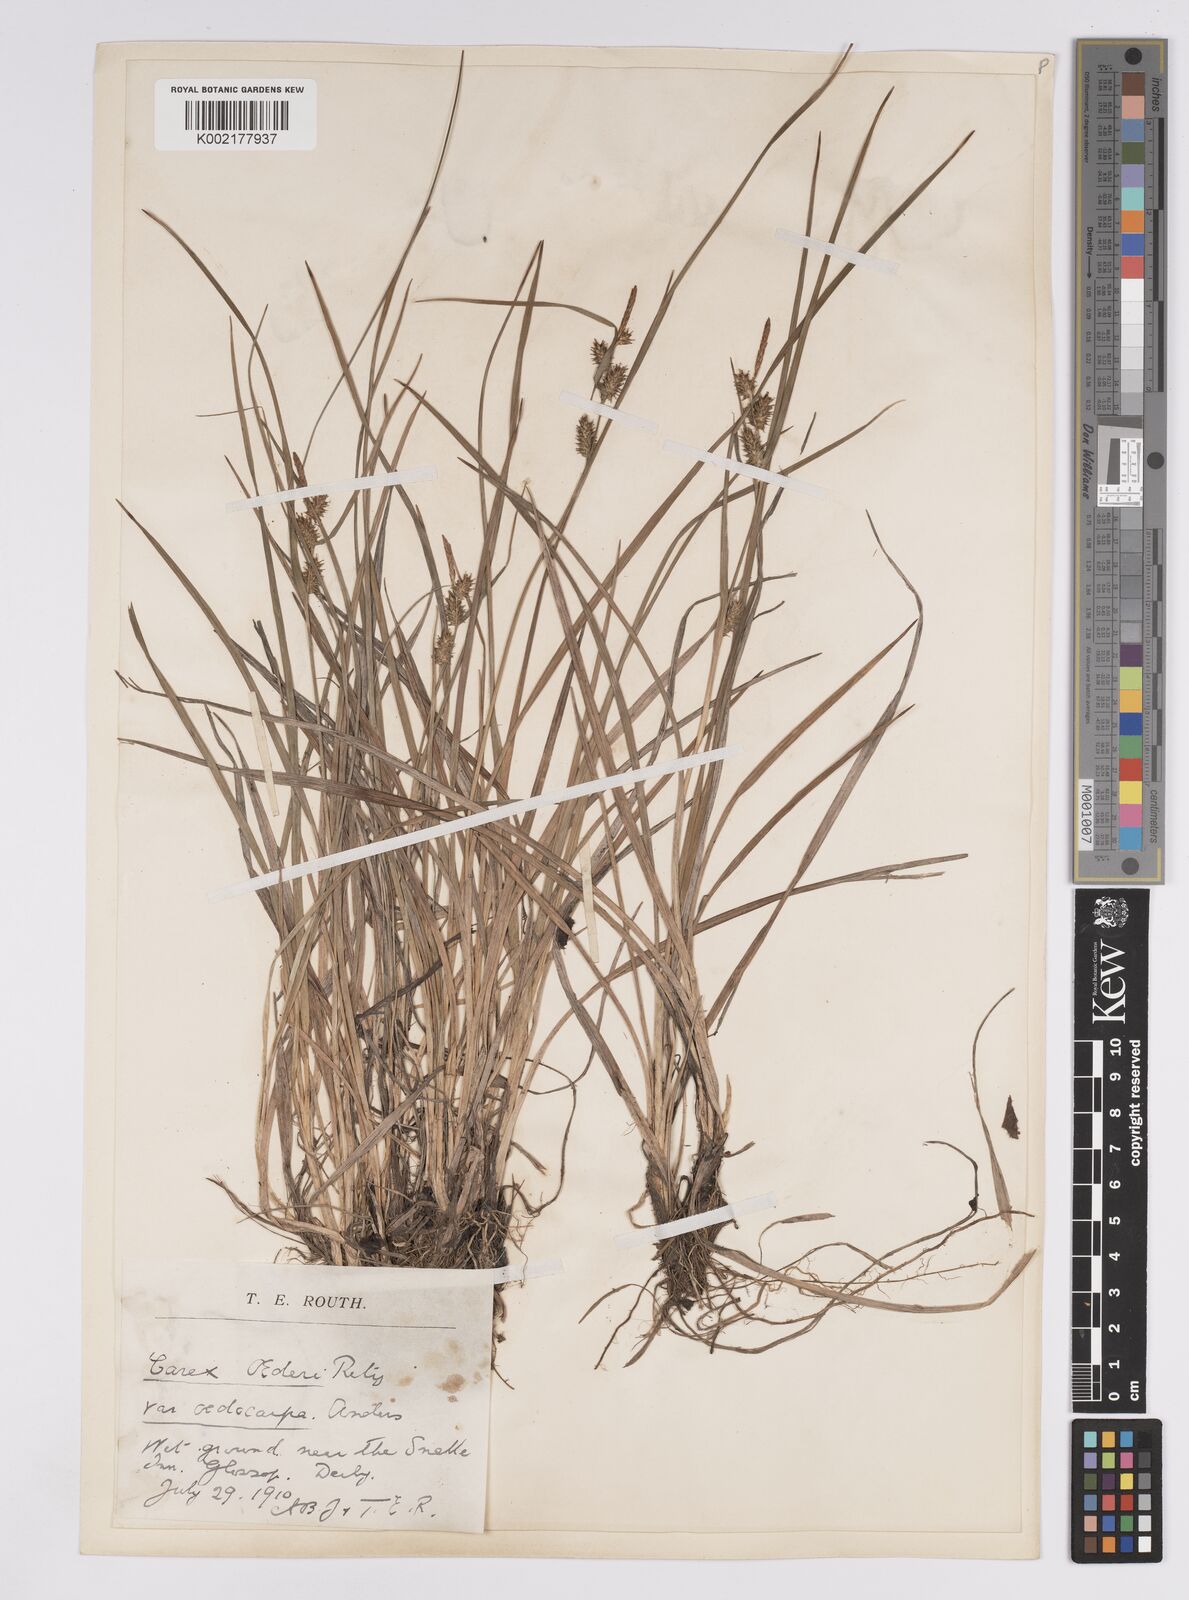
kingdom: Plantae
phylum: Tracheophyta
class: Liliopsida
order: Poales
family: Cyperaceae
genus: Carex
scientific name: Carex demissa
